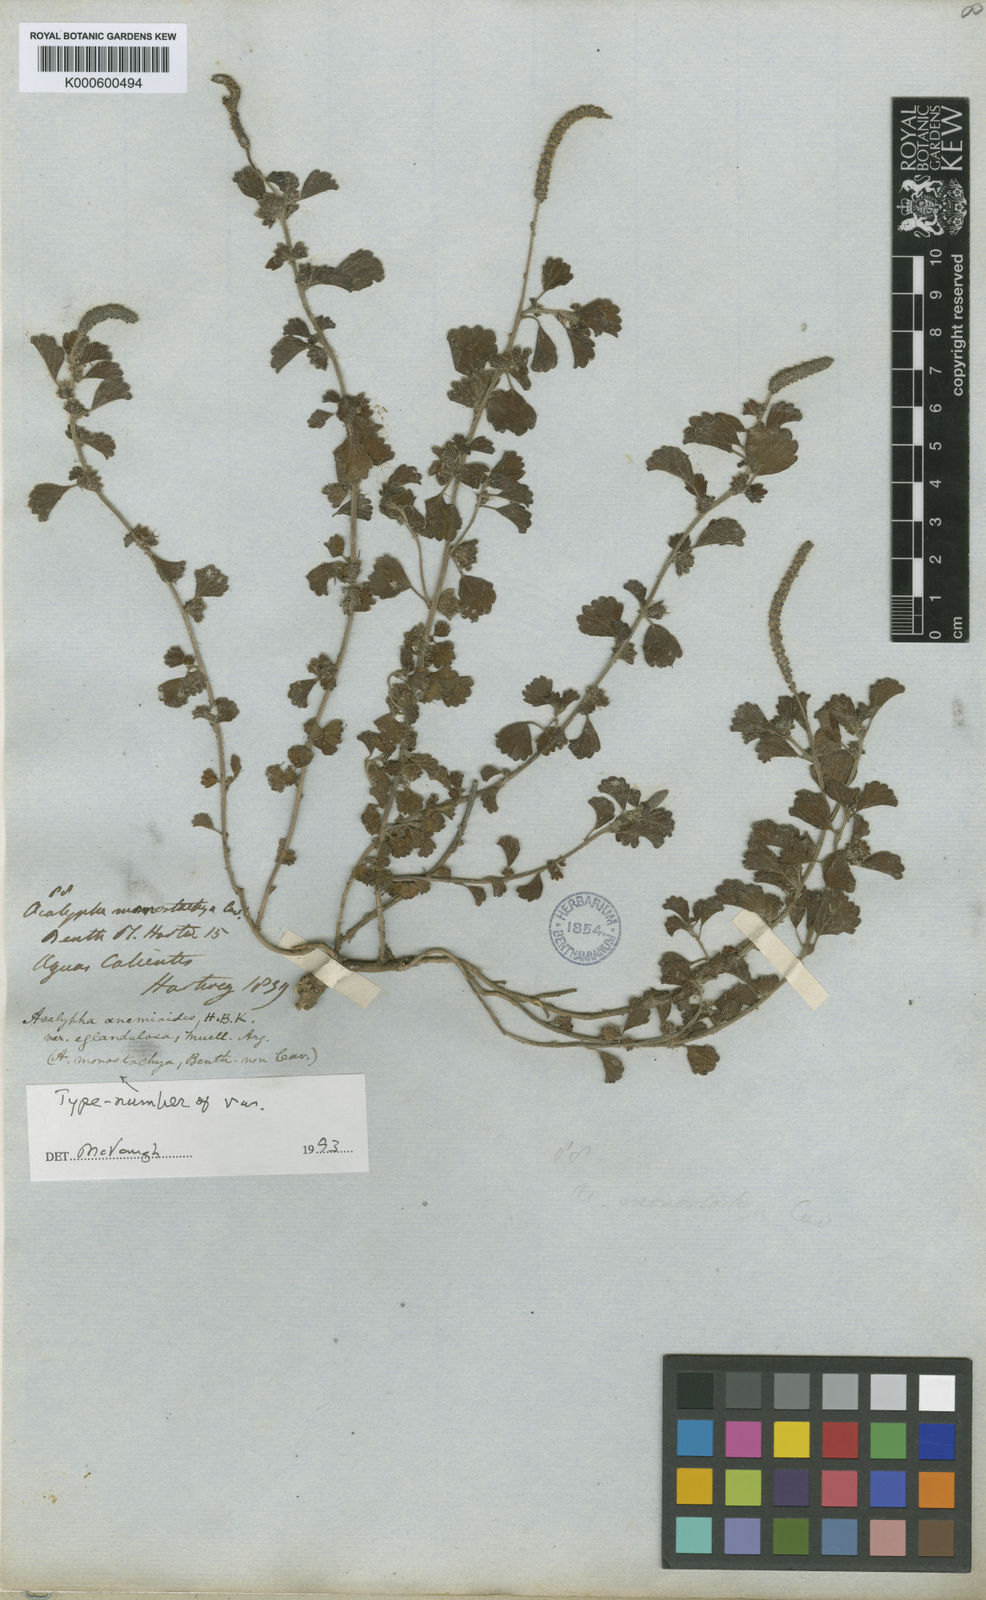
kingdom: Plantae
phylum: Tracheophyta
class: Magnoliopsida
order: Malpighiales
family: Euphorbiaceae
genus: Acalypha
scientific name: Acalypha anemioides
